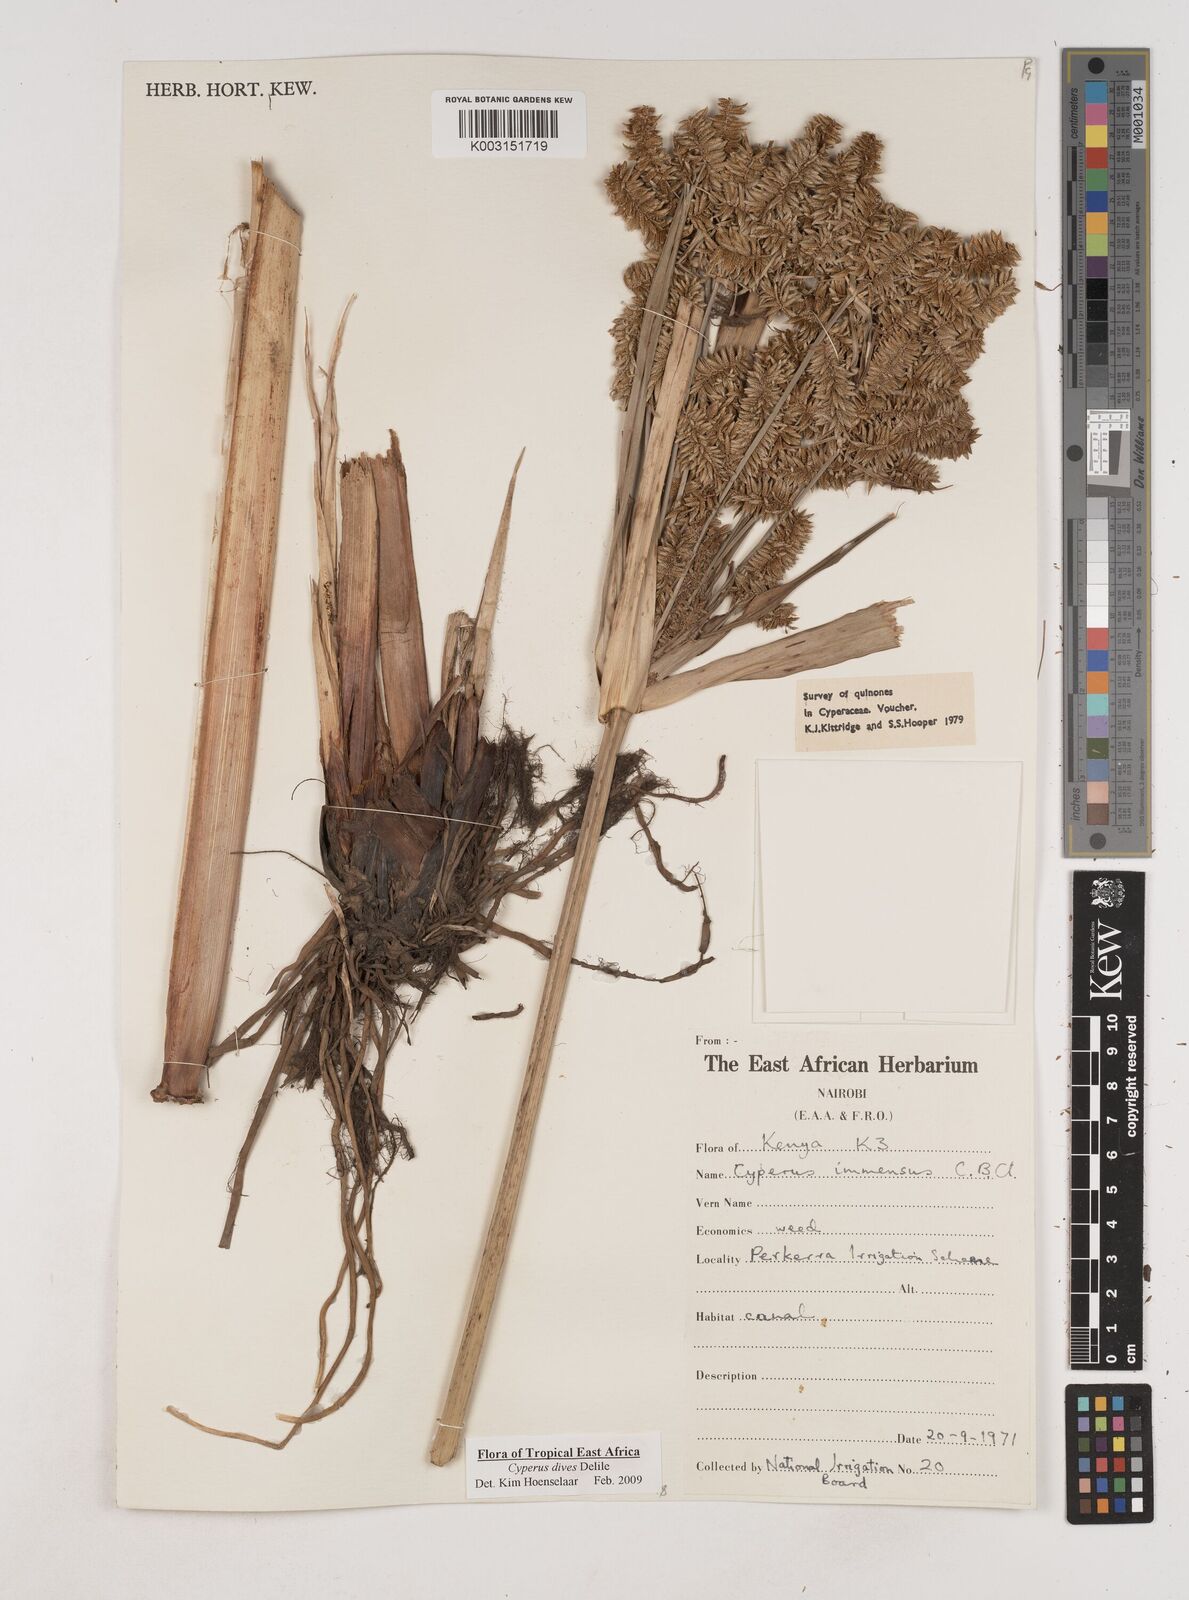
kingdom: Plantae
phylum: Tracheophyta
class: Liliopsida
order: Poales
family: Cyperaceae
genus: Cyperus
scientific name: Cyperus dives
